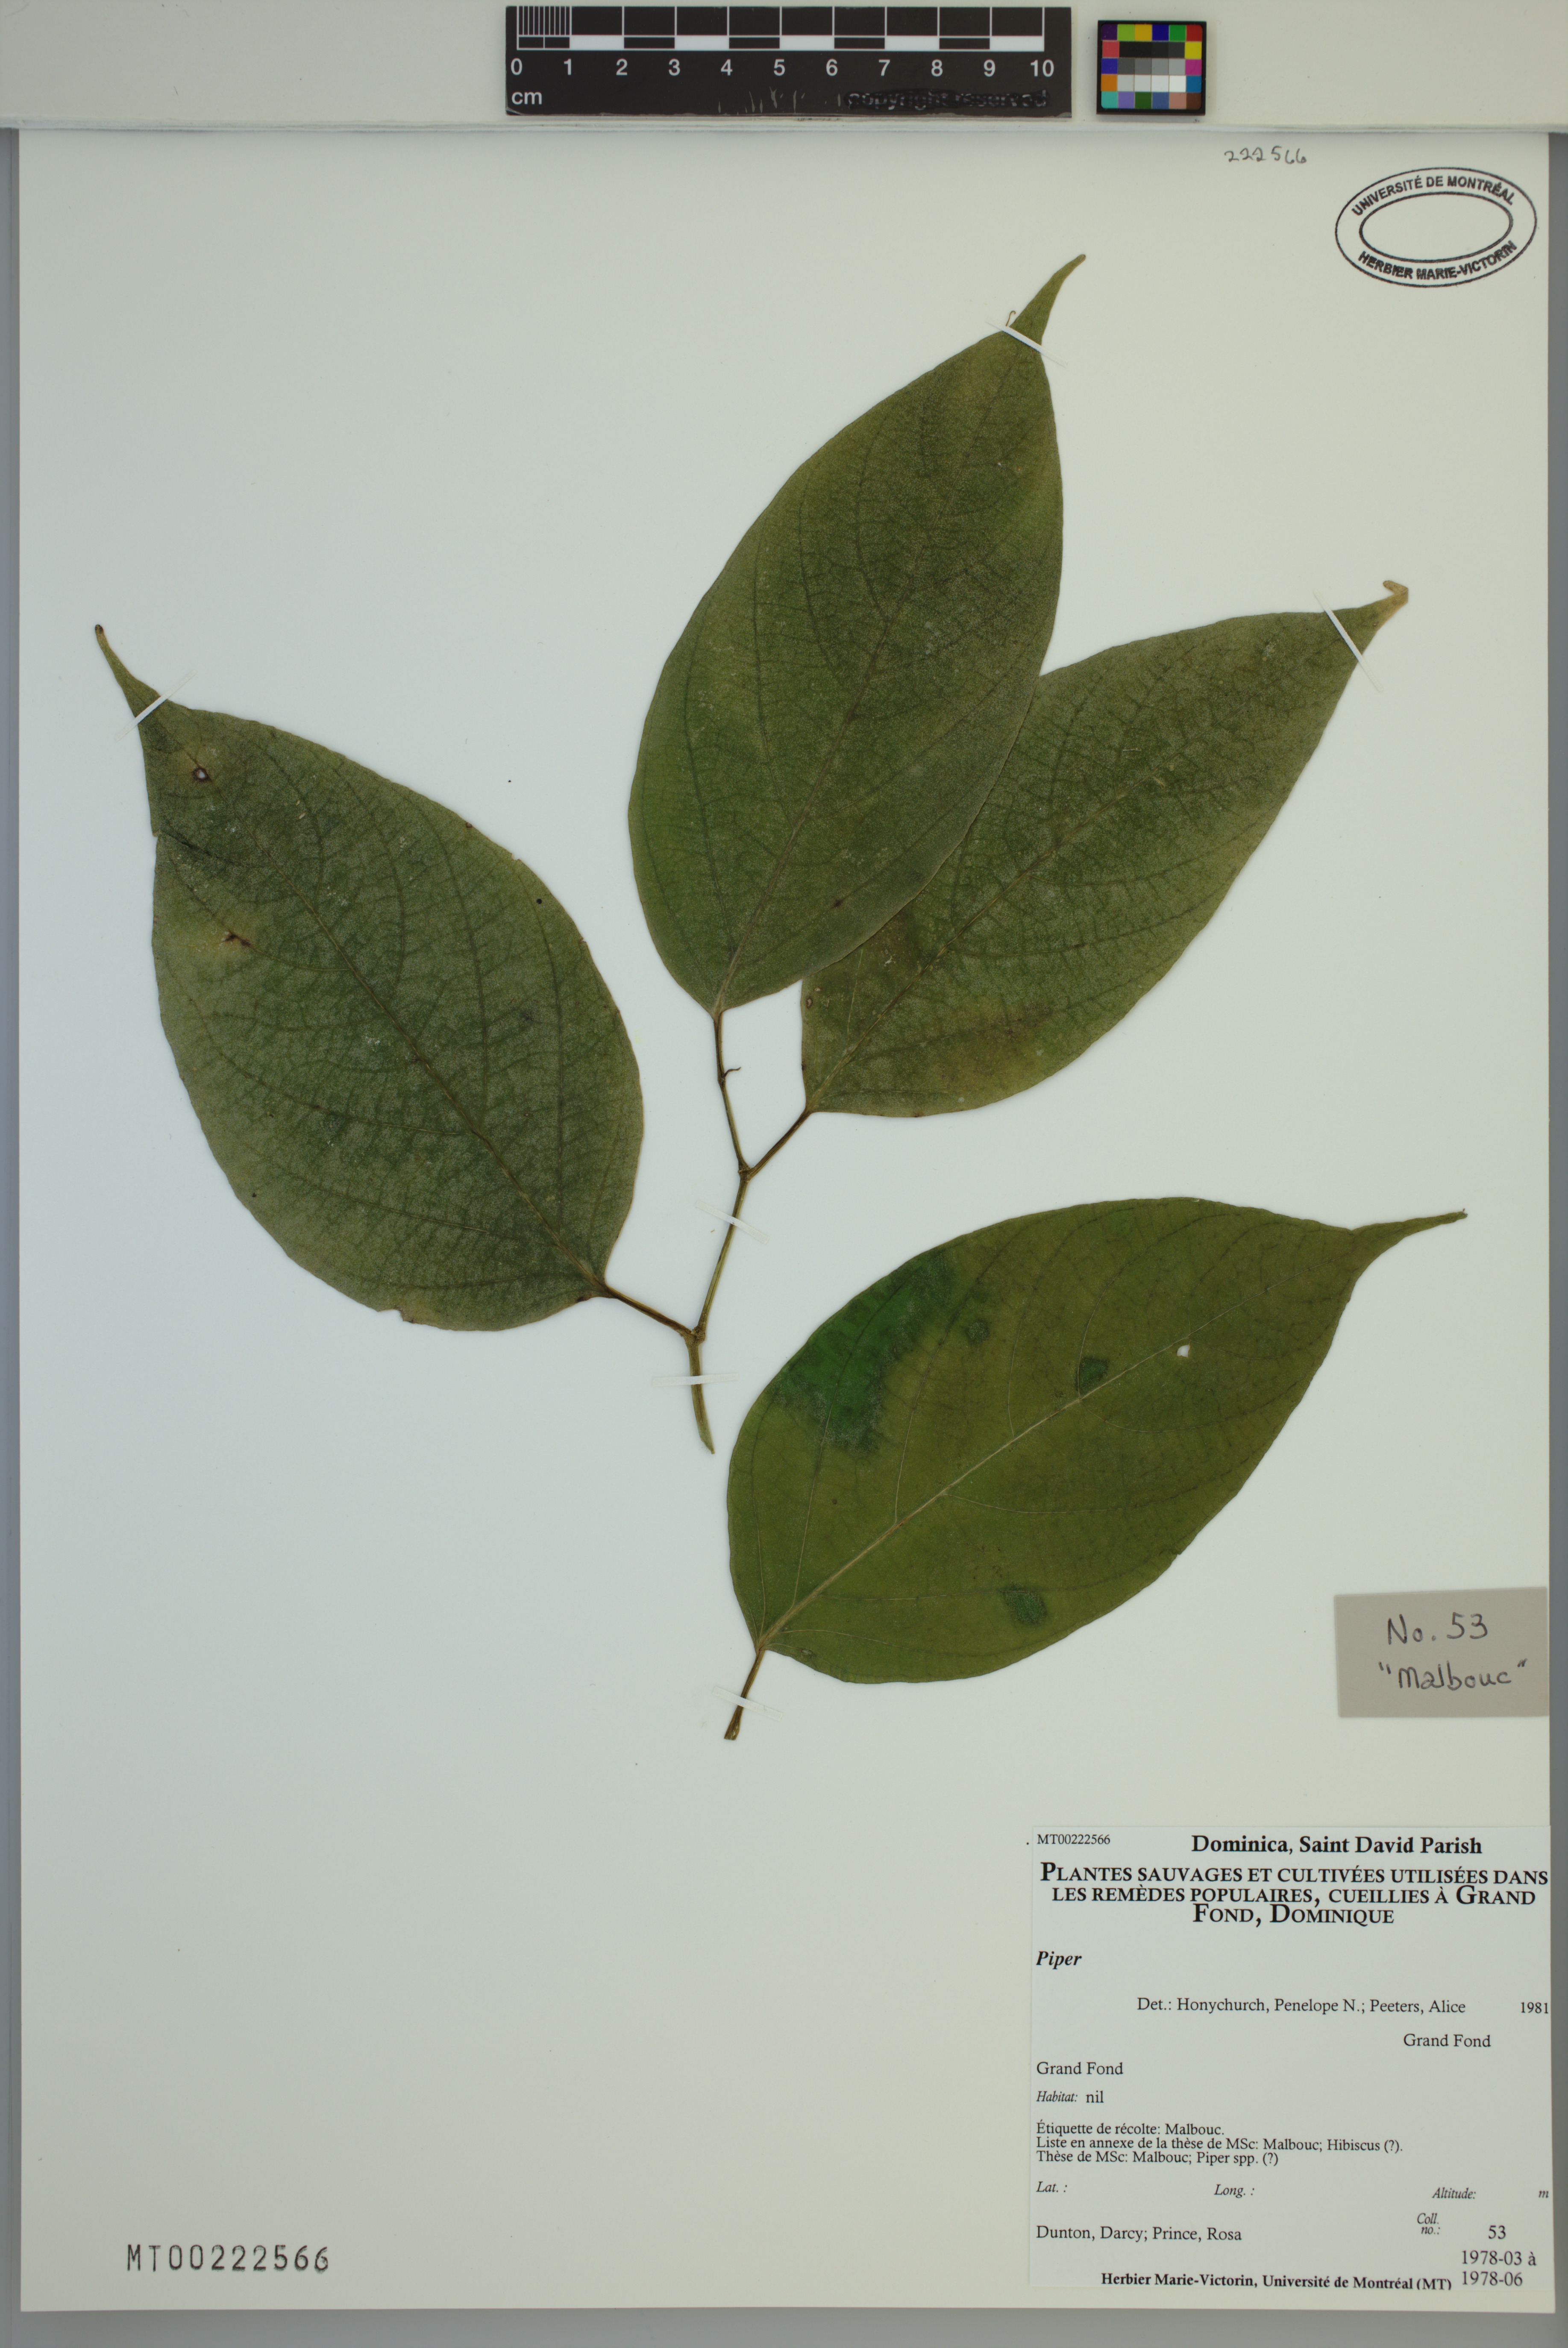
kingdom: Plantae
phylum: Tracheophyta
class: Magnoliopsida
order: Piperales
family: Piperaceae
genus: Piper
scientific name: Piper
